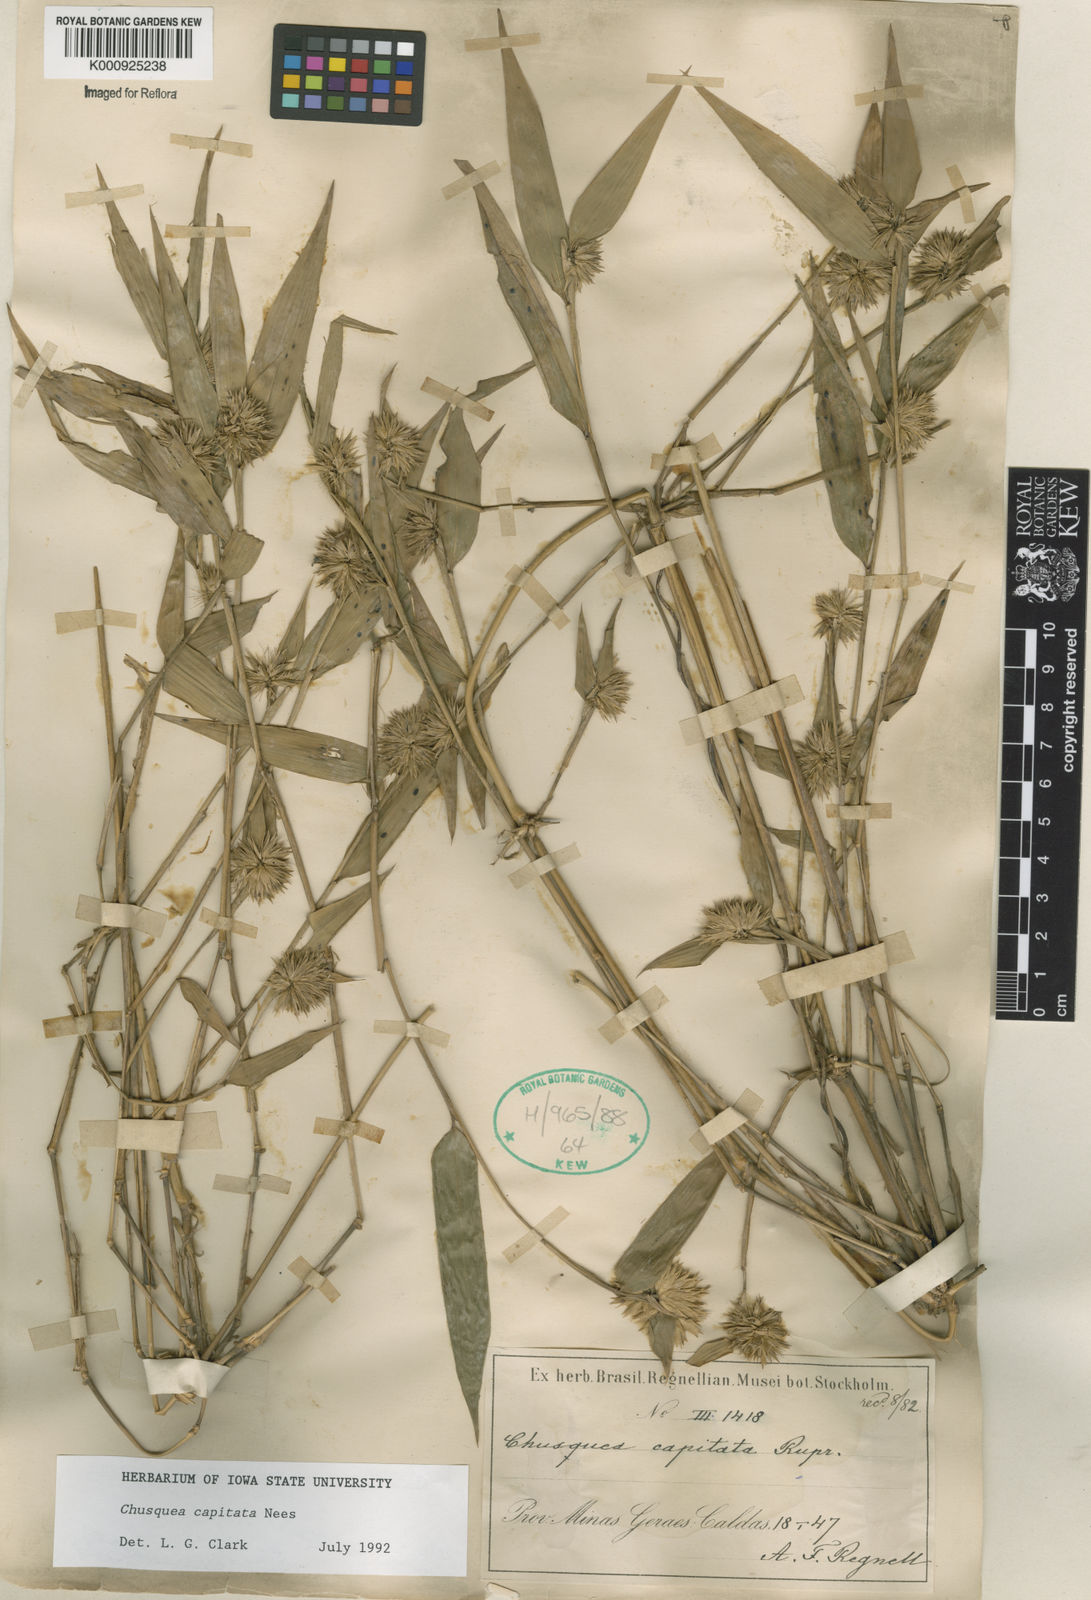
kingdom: Plantae
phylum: Tracheophyta
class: Liliopsida
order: Poales
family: Poaceae
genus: Chusquea
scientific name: Chusquea capitata
